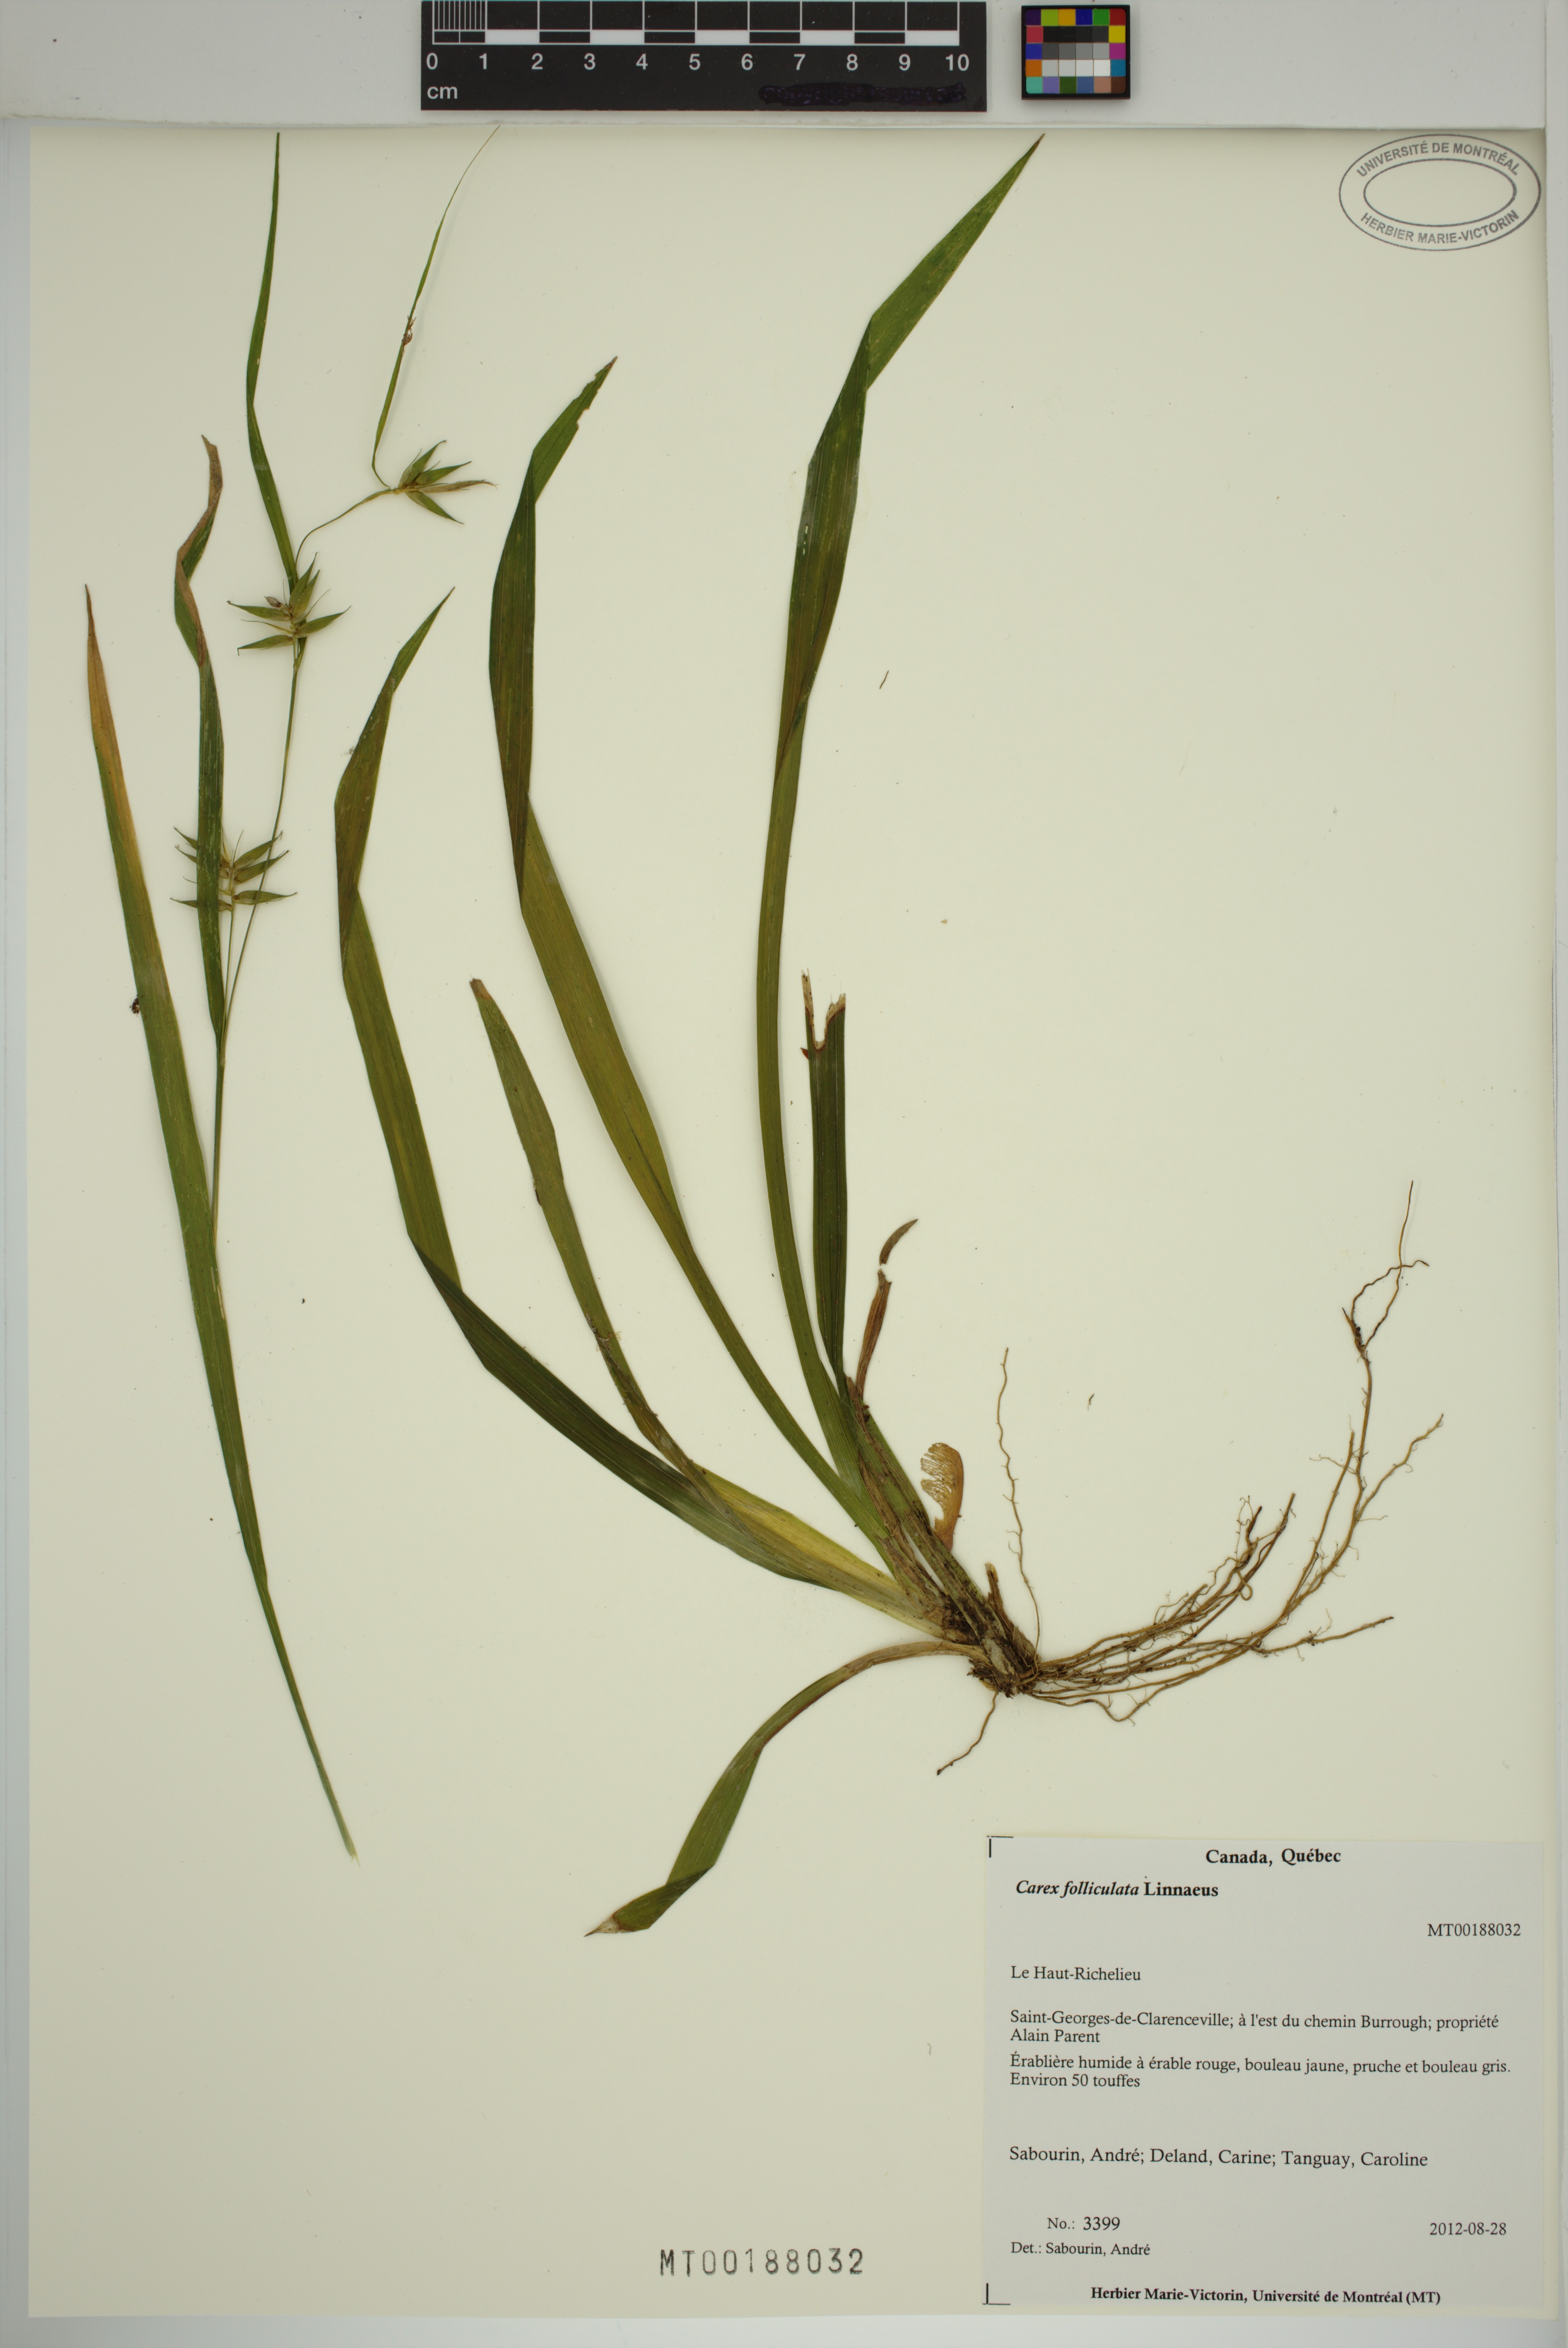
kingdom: Plantae
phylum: Tracheophyta
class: Liliopsida
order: Poales
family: Cyperaceae
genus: Carex
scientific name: Carex folliculata
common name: Northern long sedge
